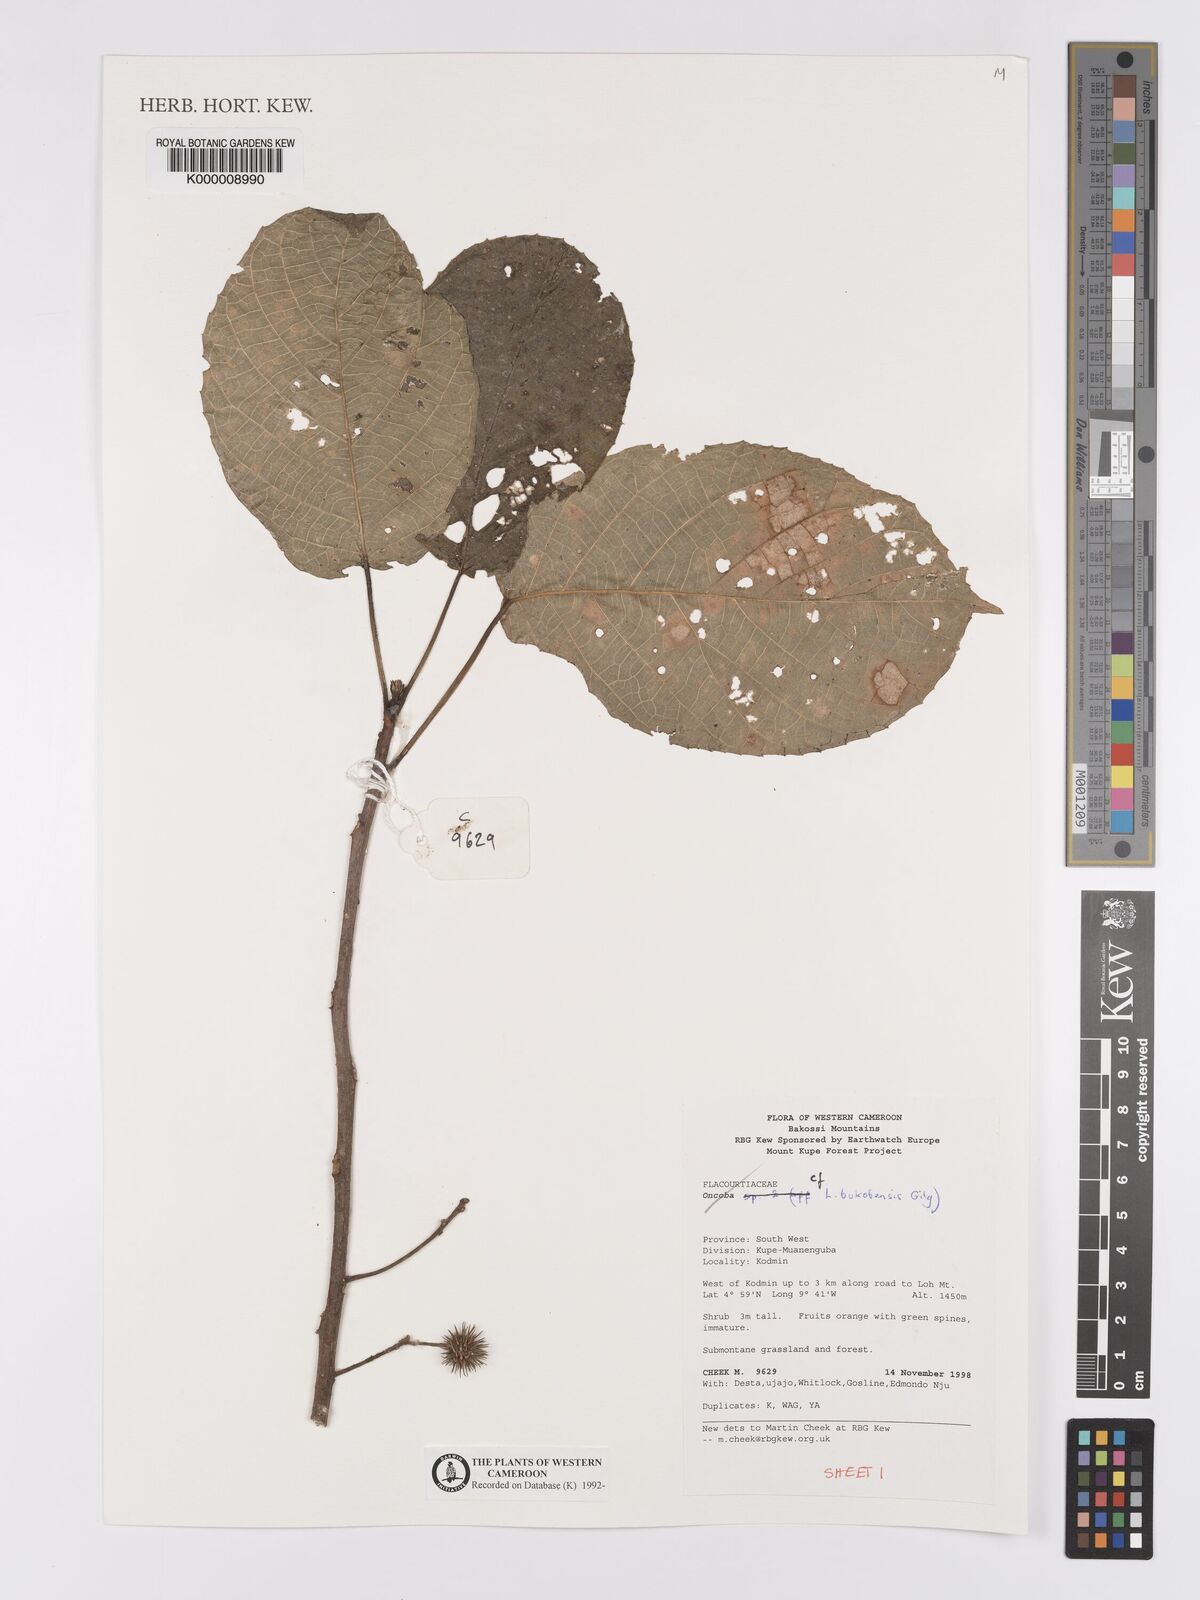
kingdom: Plantae
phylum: Tracheophyta
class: Magnoliopsida
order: Malpighiales
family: Achariaceae
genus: Lindackeria
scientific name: Lindackeria bukobensis
